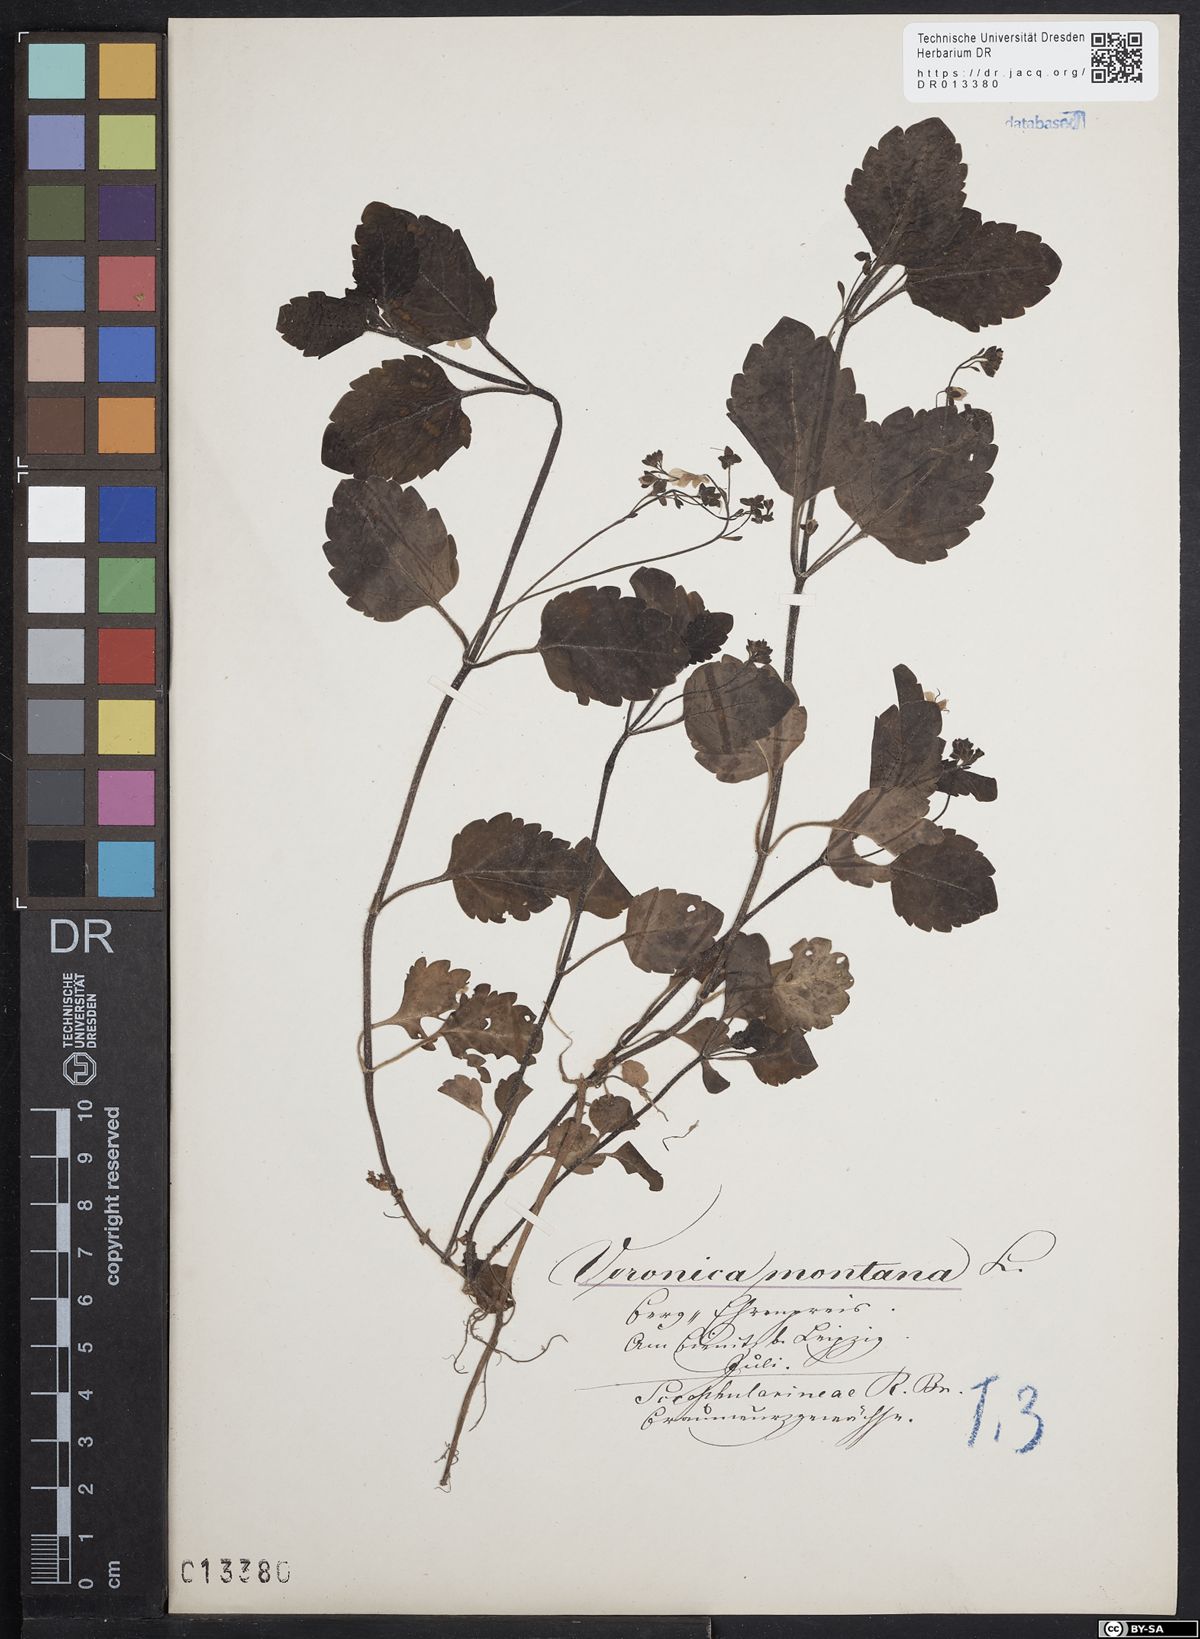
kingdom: Plantae
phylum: Tracheophyta
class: Magnoliopsida
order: Lamiales
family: Plantaginaceae
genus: Veronica
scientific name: Veronica montana
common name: Wood speedwell
